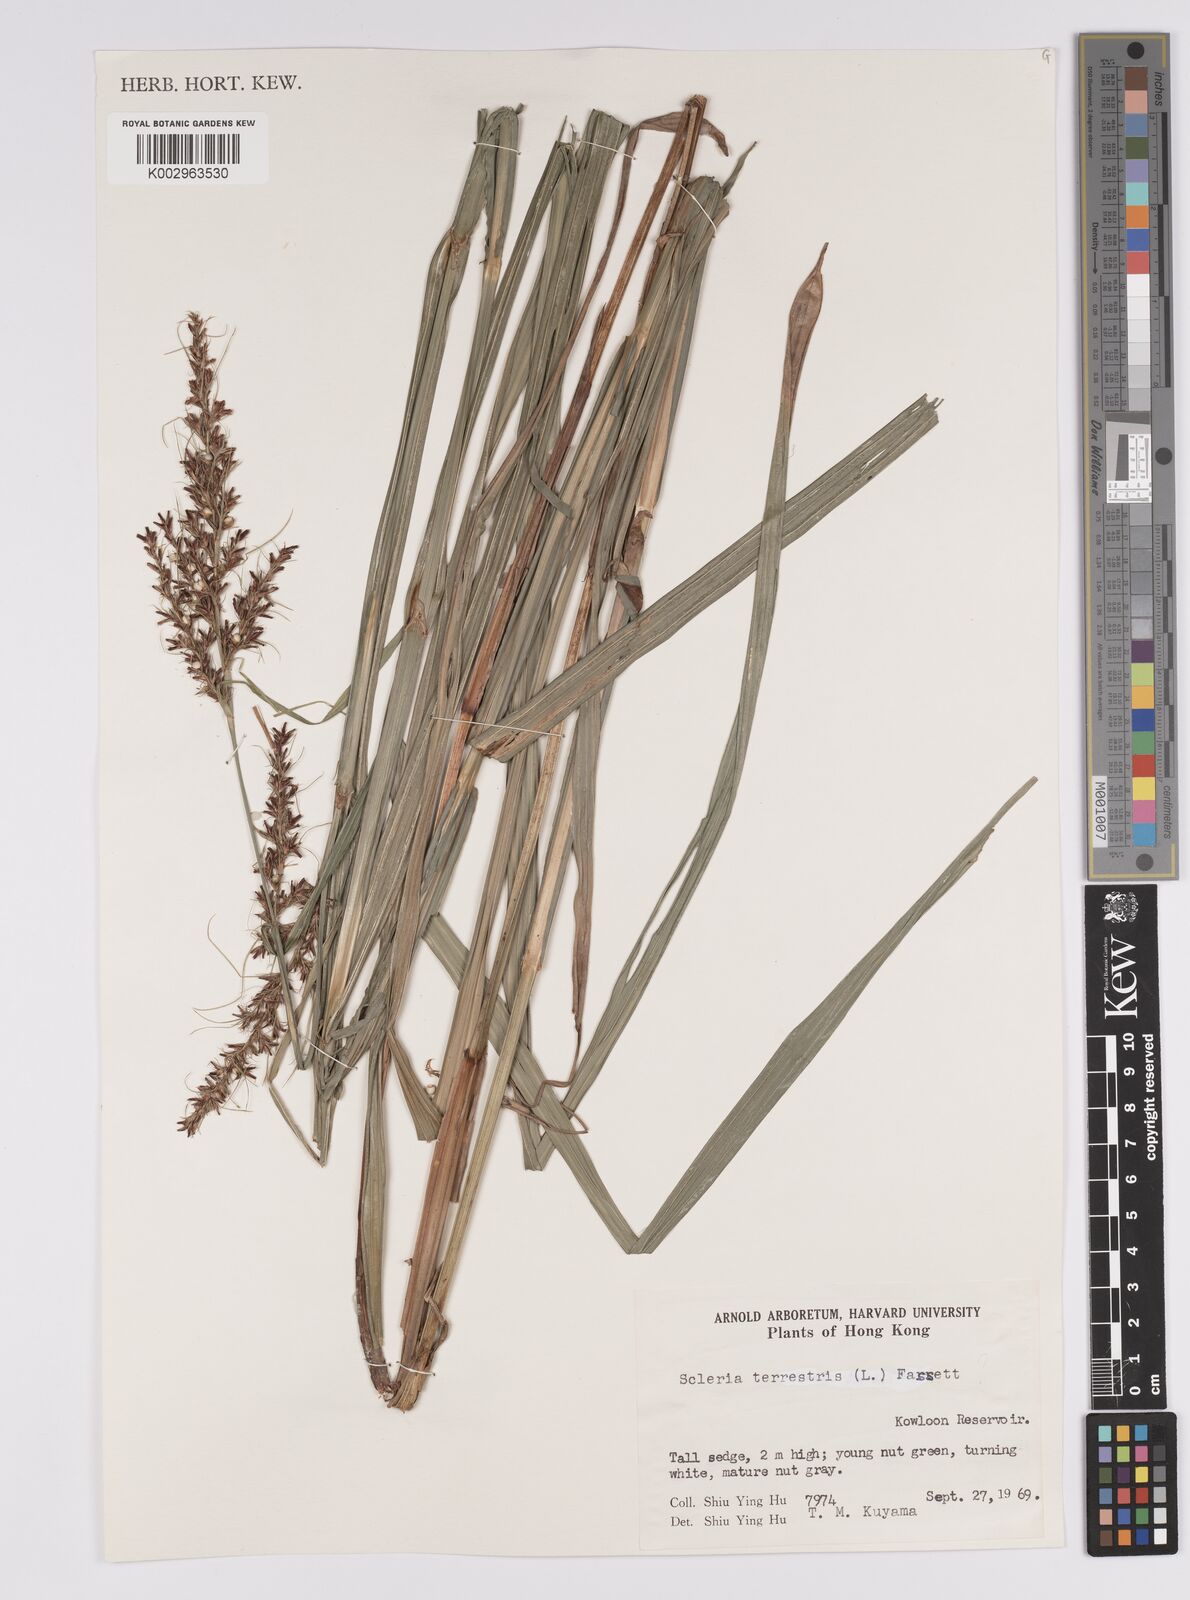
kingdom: Plantae
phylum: Tracheophyta
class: Liliopsida
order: Poales
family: Cyperaceae
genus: Scleria
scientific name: Scleria terrestris
